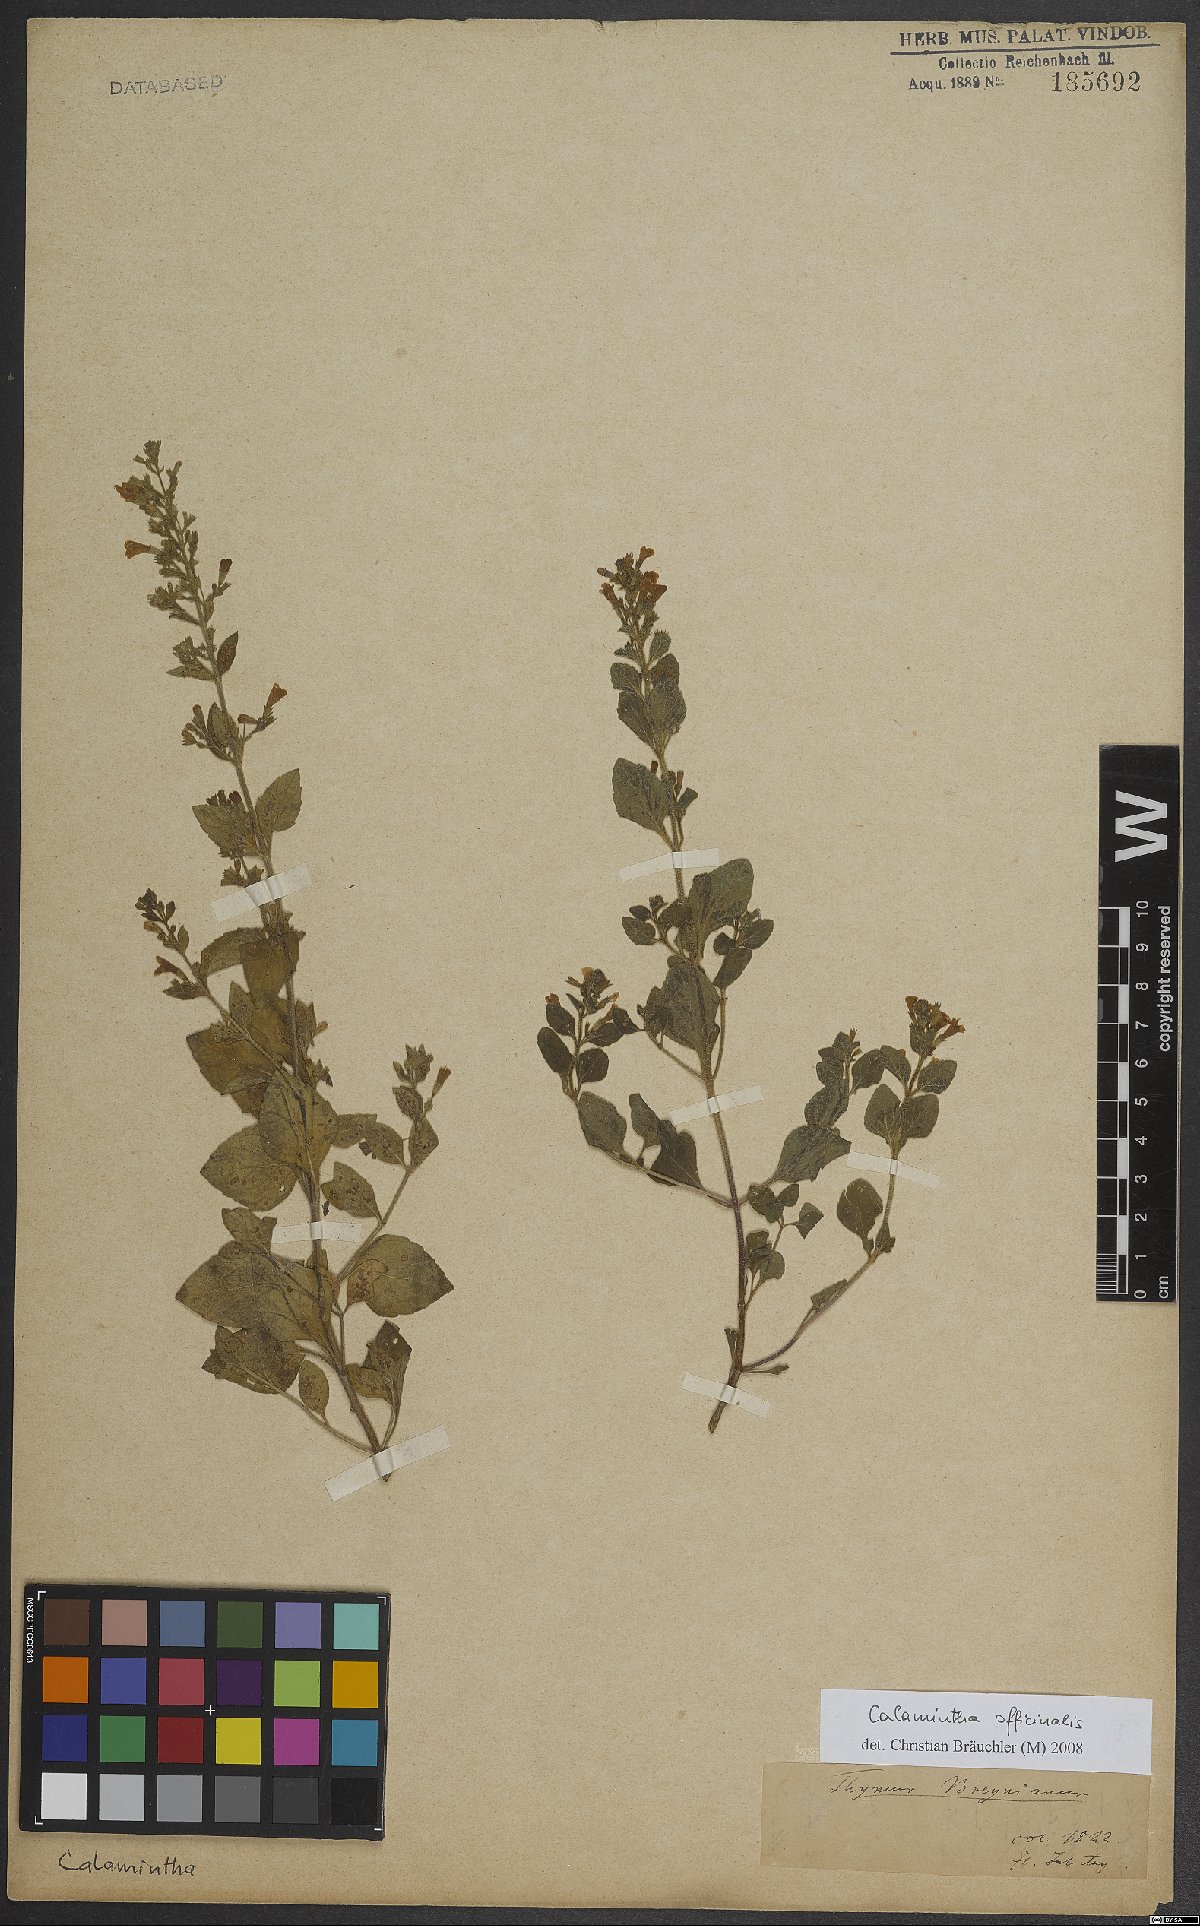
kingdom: Plantae
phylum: Tracheophyta
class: Magnoliopsida
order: Lamiales
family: Lamiaceae
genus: Clinopodium
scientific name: Clinopodium nepeta
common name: Lesser calamint
